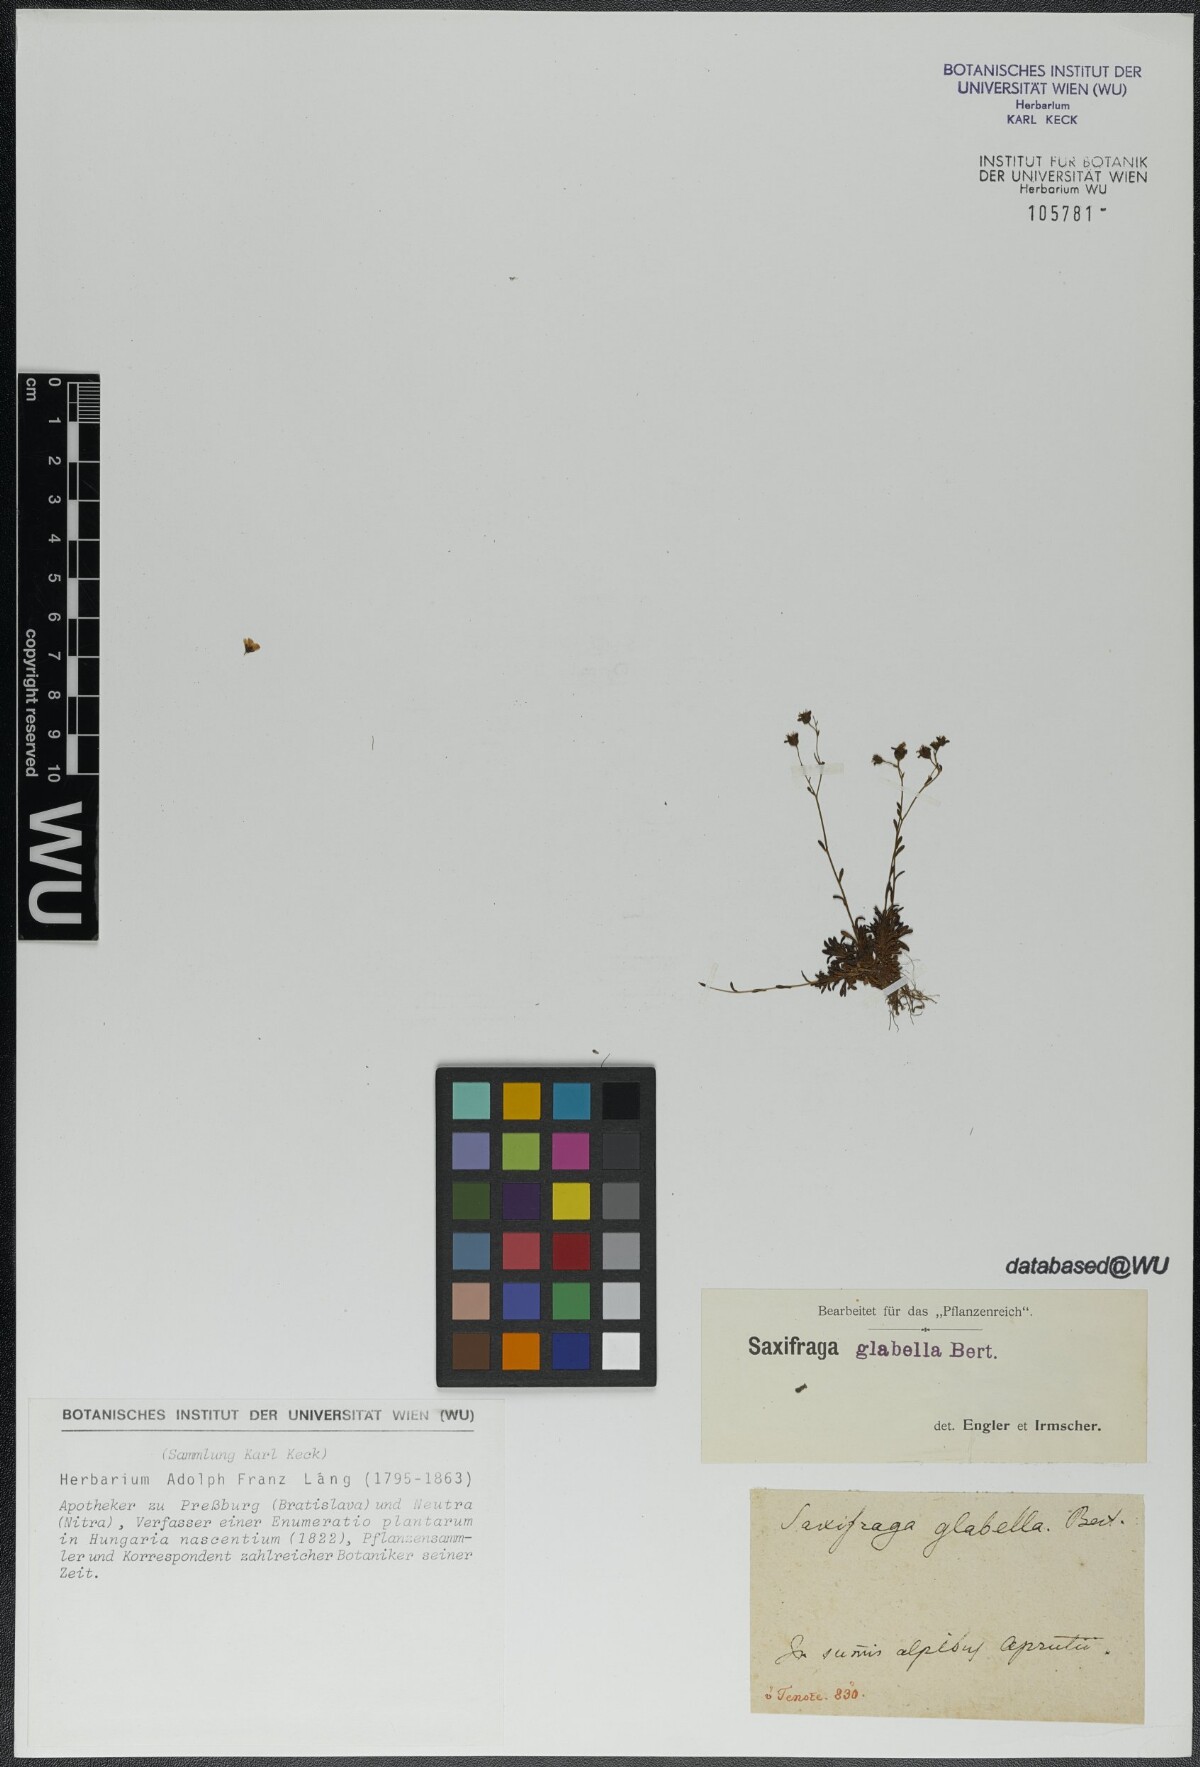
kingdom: Plantae
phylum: Tracheophyta
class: Magnoliopsida
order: Saxifragales
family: Saxifragaceae
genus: Saxifraga
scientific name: Saxifraga glabella
